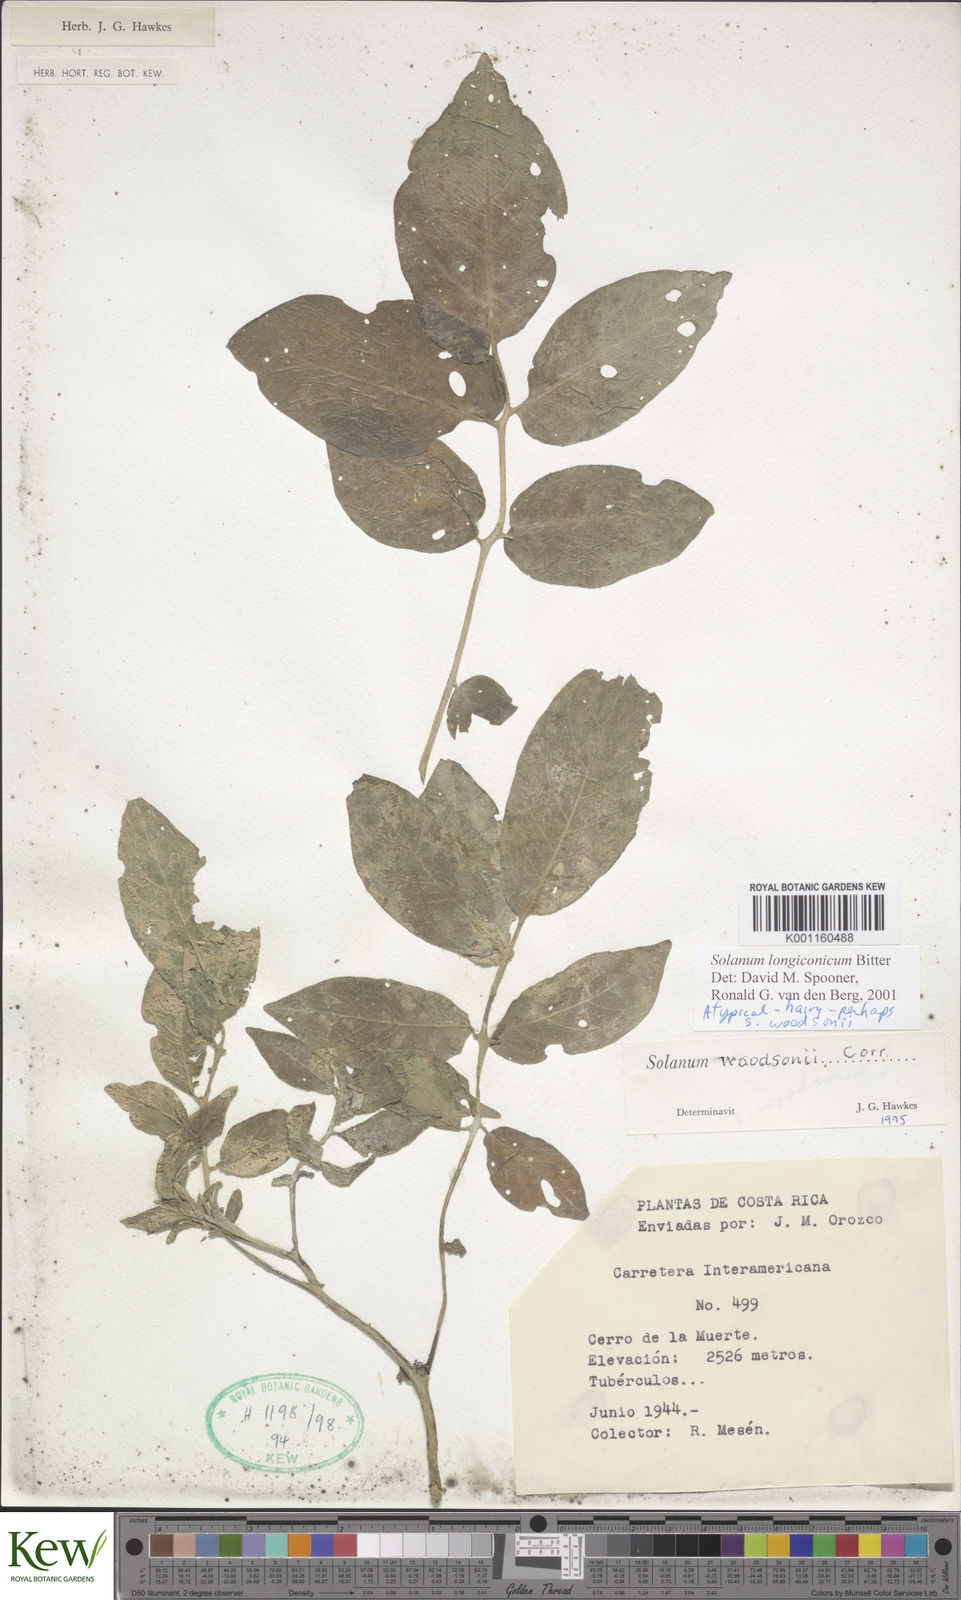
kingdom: Plantae
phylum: Tracheophyta
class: Magnoliopsida
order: Solanales
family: Solanaceae
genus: Solanum
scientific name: Solanum longiconicum
